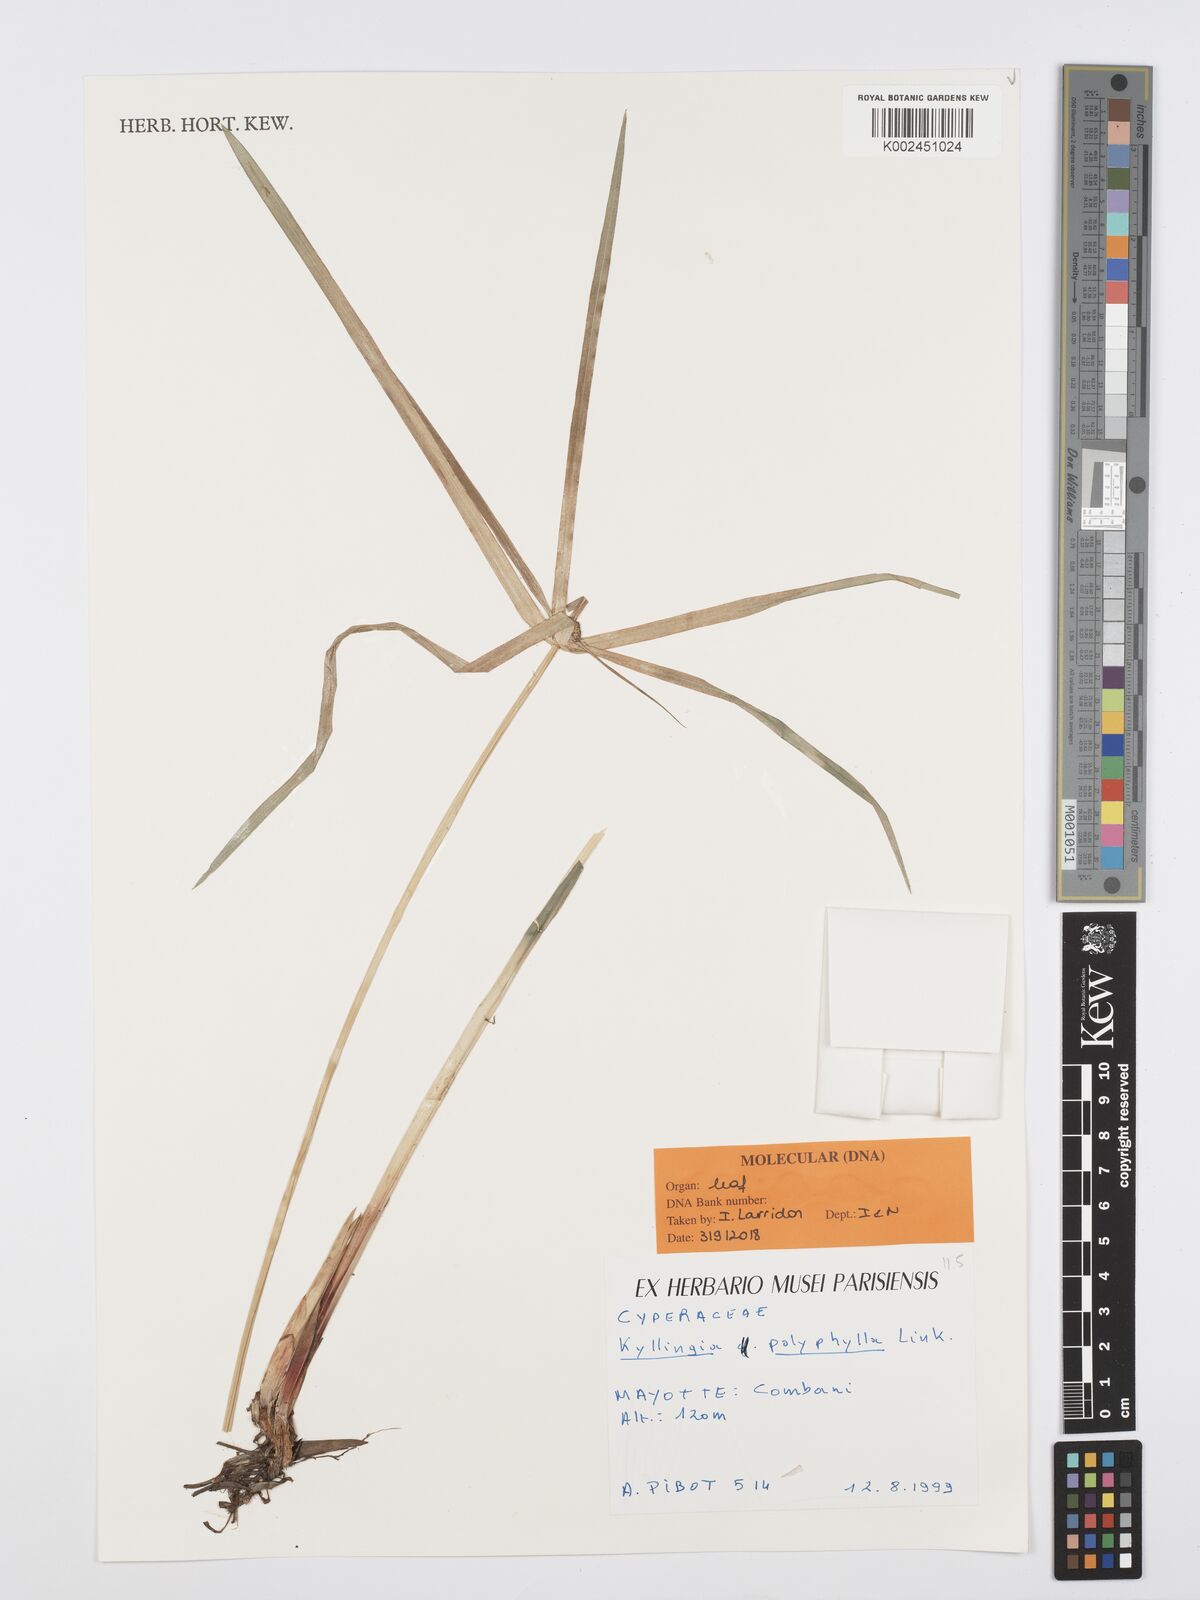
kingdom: Plantae
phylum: Tracheophyta
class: Liliopsida
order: Poales
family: Cyperaceae
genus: Cyperus
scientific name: Cyperus bulbosus
